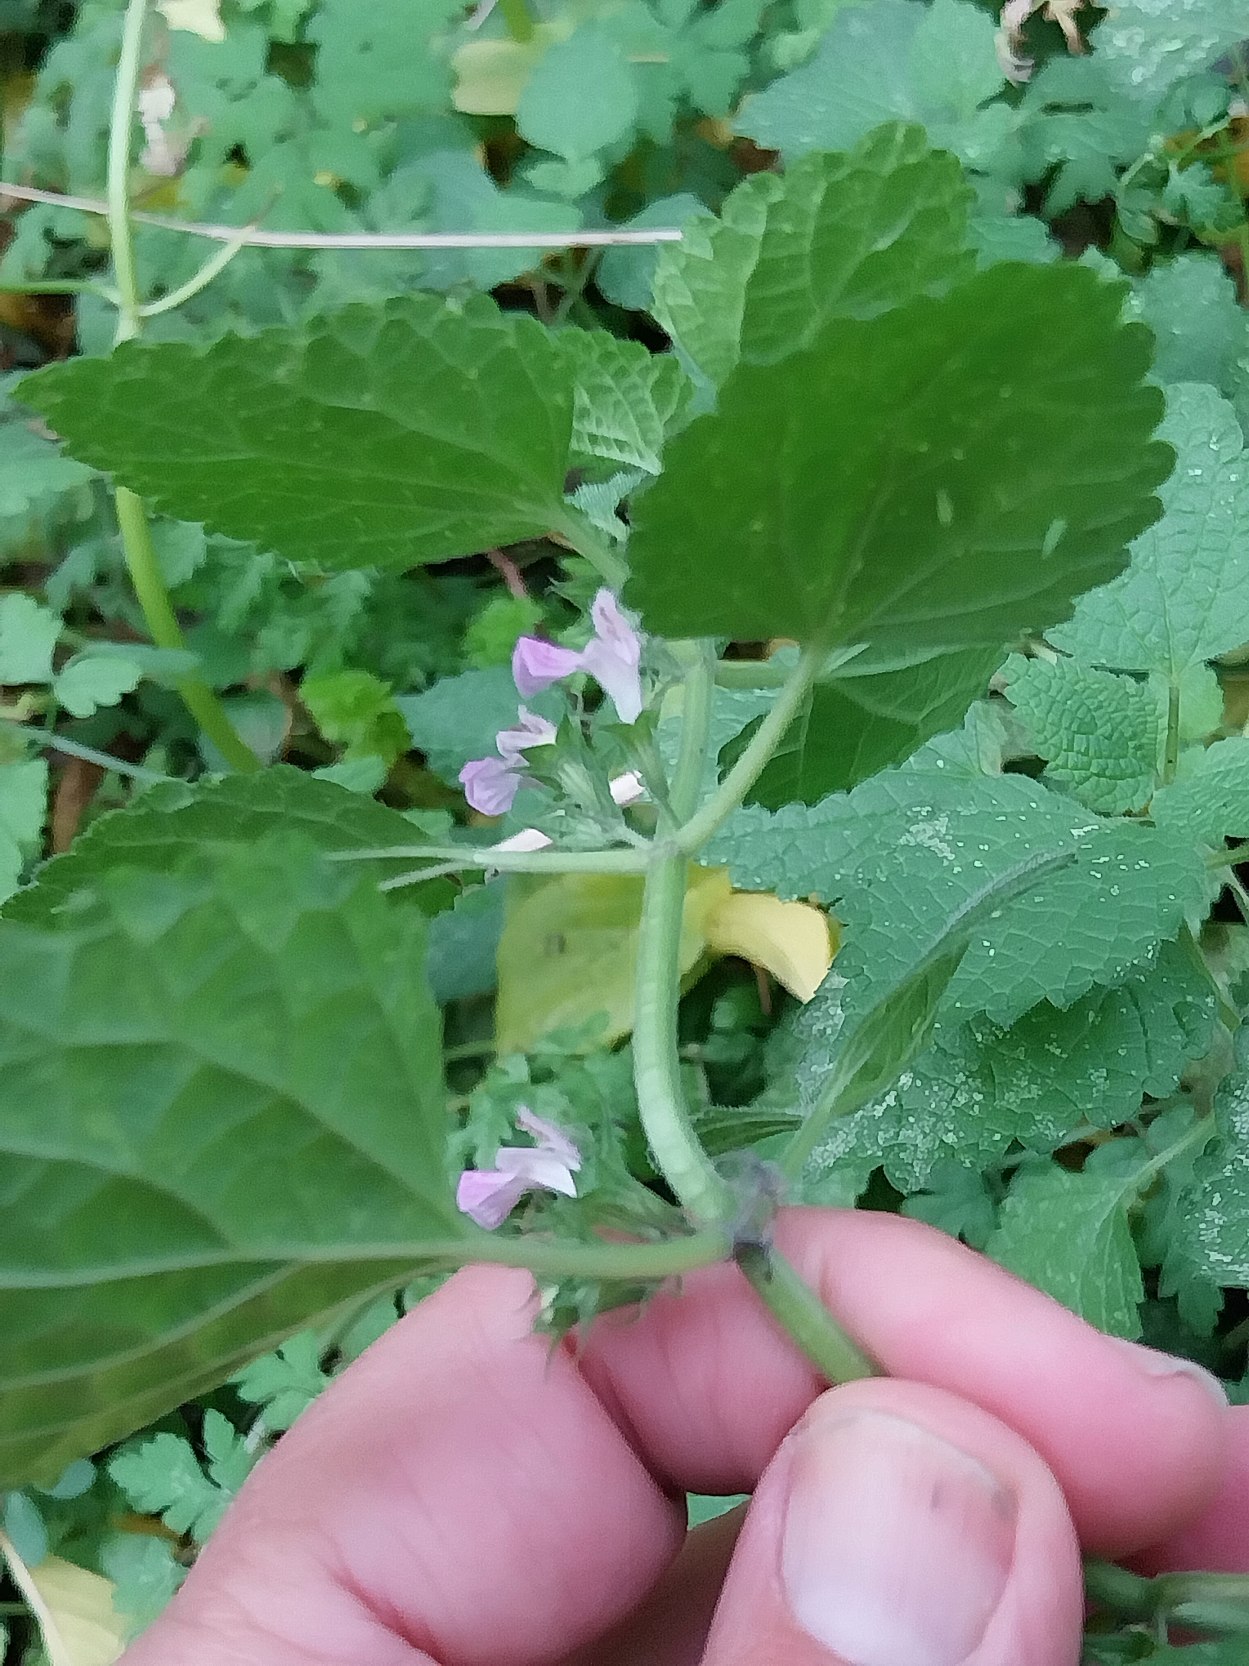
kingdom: Plantae
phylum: Tracheophyta
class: Magnoliopsida
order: Lamiales
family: Lamiaceae
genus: Ballota
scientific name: Ballota nigra
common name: Tandbæger
